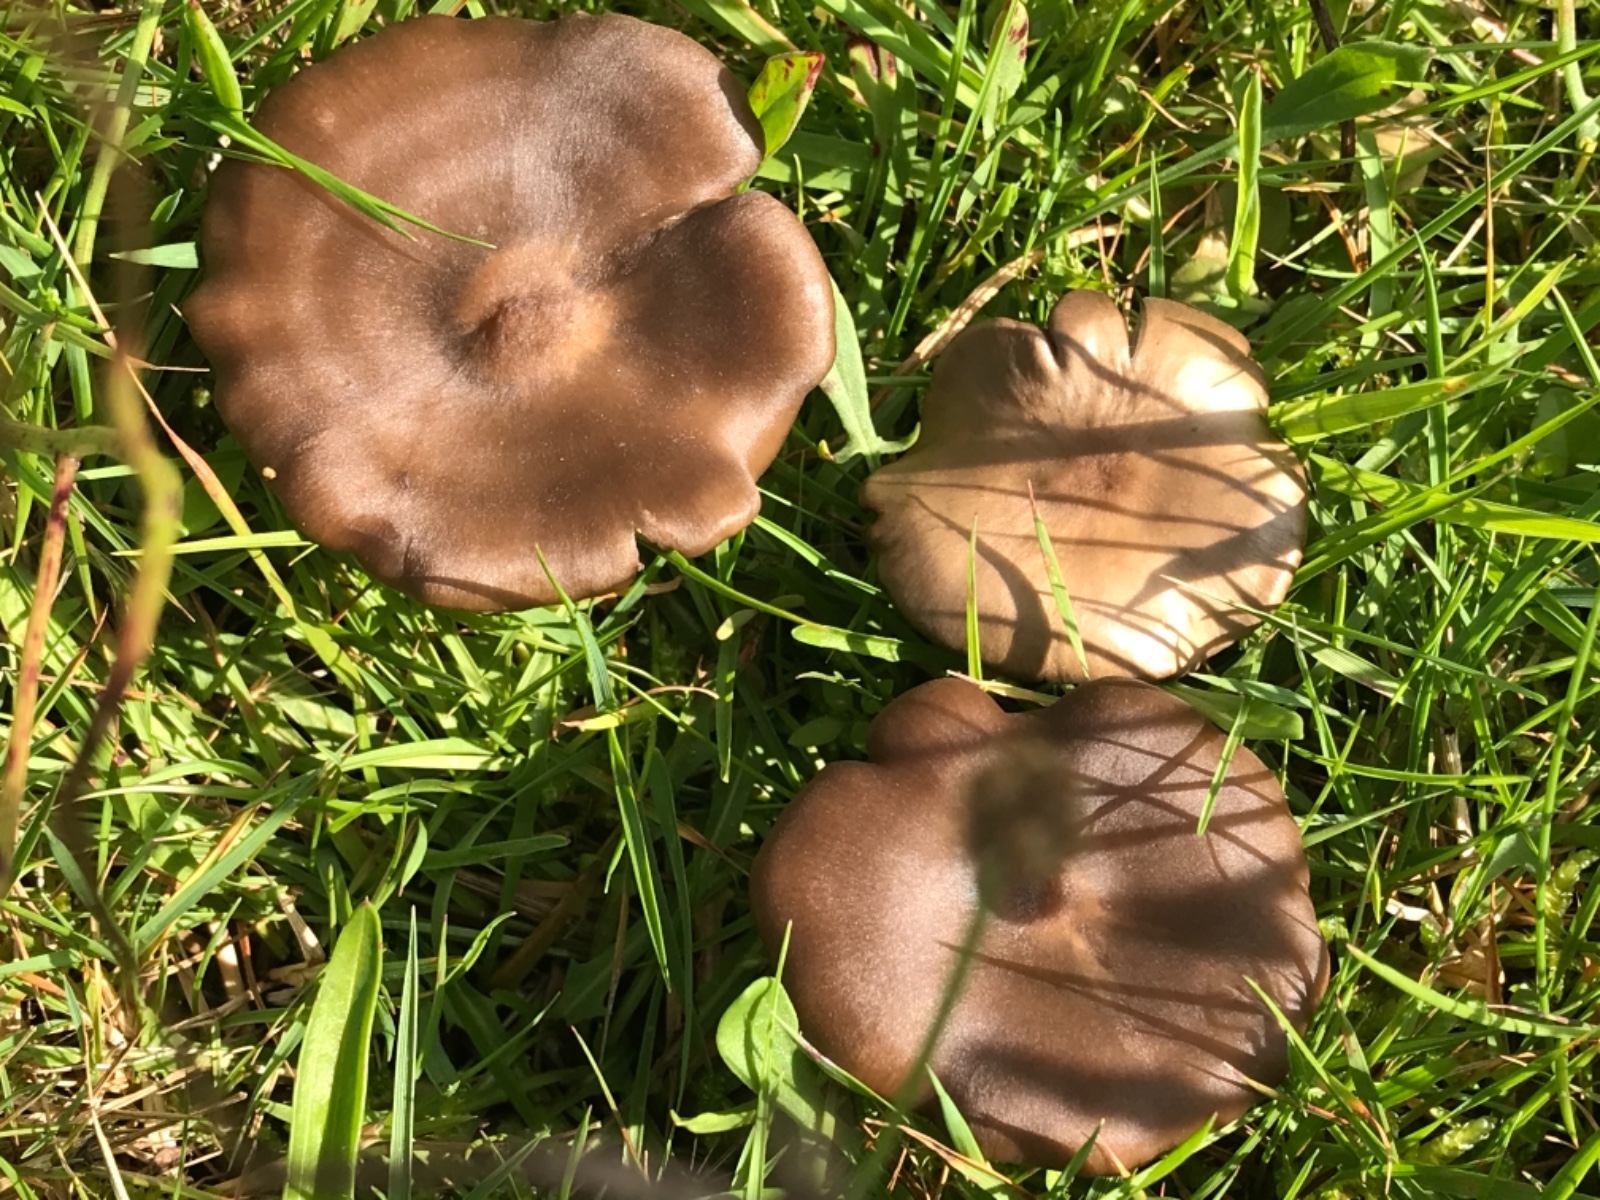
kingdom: Fungi
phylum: Basidiomycota
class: Agaricomycetes
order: Agaricales
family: Entolomataceae
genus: Entoloma
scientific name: Entoloma
